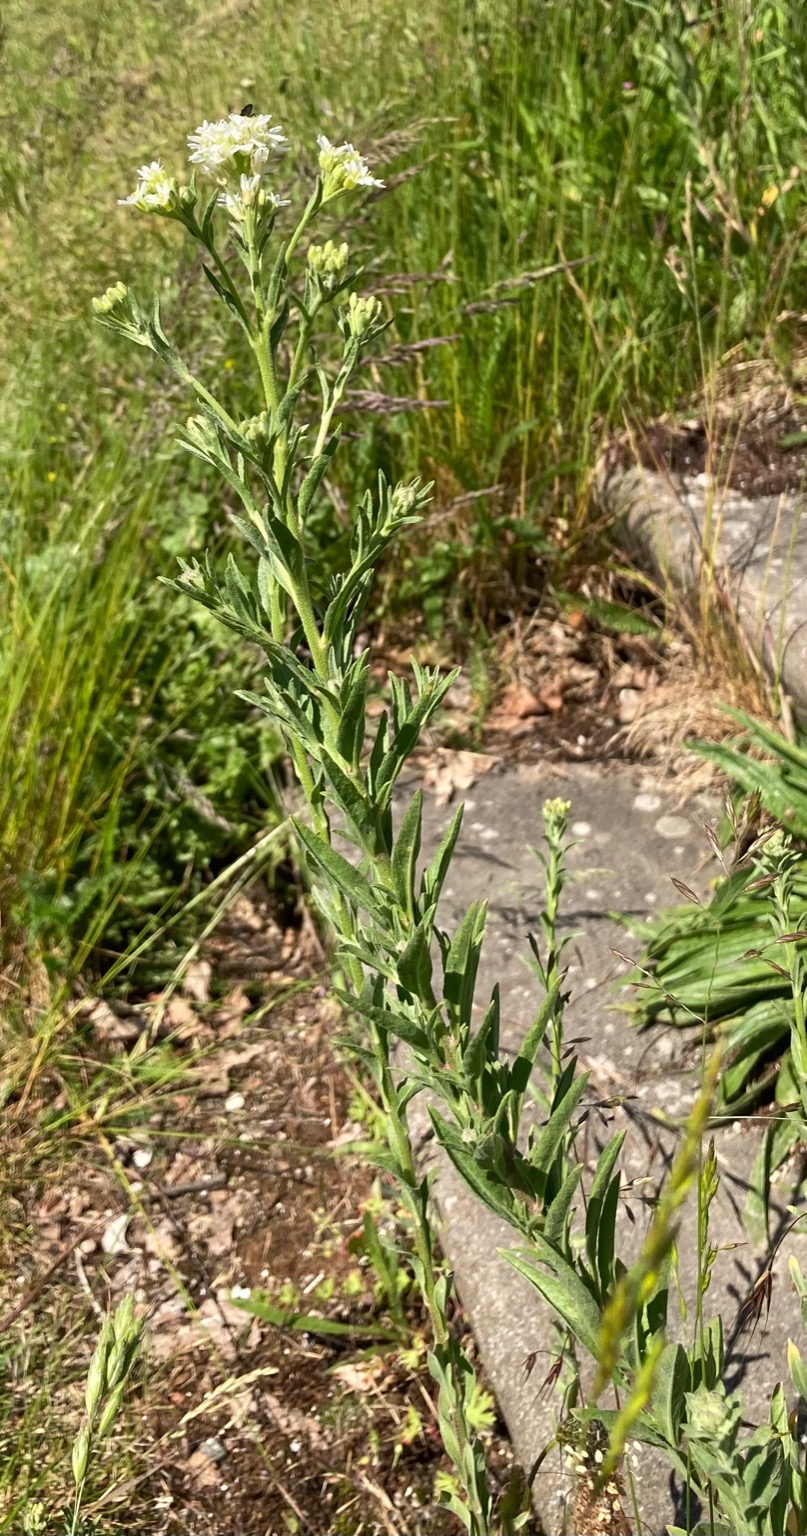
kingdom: Plantae
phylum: Tracheophyta
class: Magnoliopsida
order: Brassicales
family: Brassicaceae
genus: Berteroa
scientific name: Berteroa incana
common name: Kløvplade
